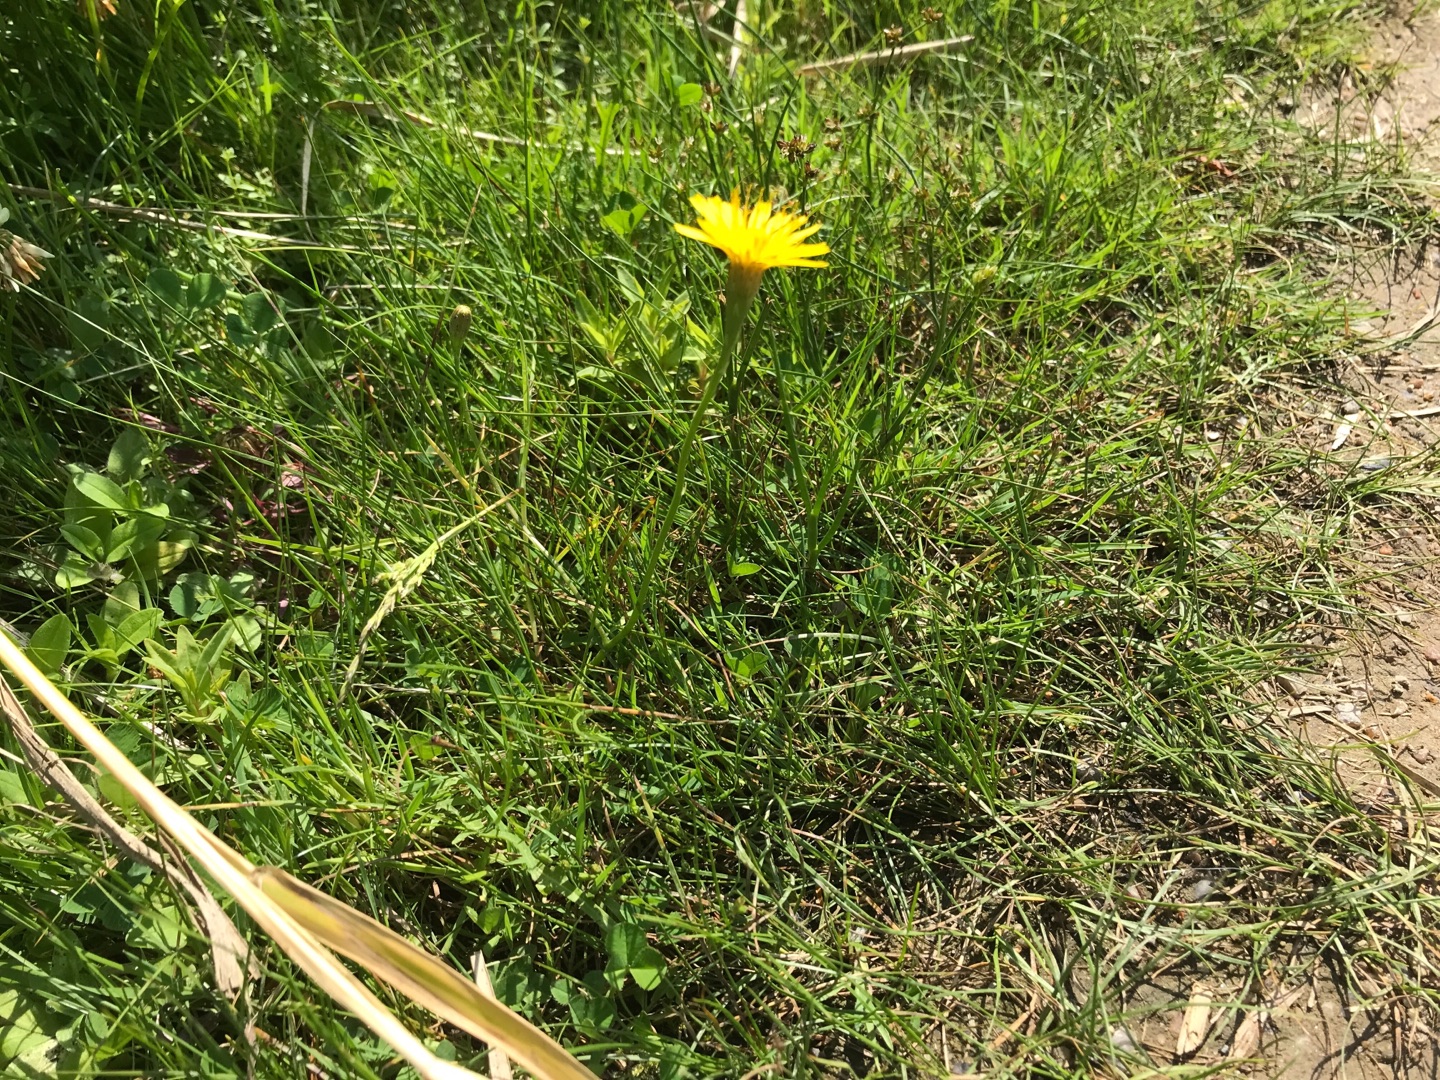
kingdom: Plantae
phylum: Tracheophyta
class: Magnoliopsida
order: Asterales
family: Asteraceae
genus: Scorzoneroides
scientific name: Scorzoneroides autumnalis
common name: Høst-borst
